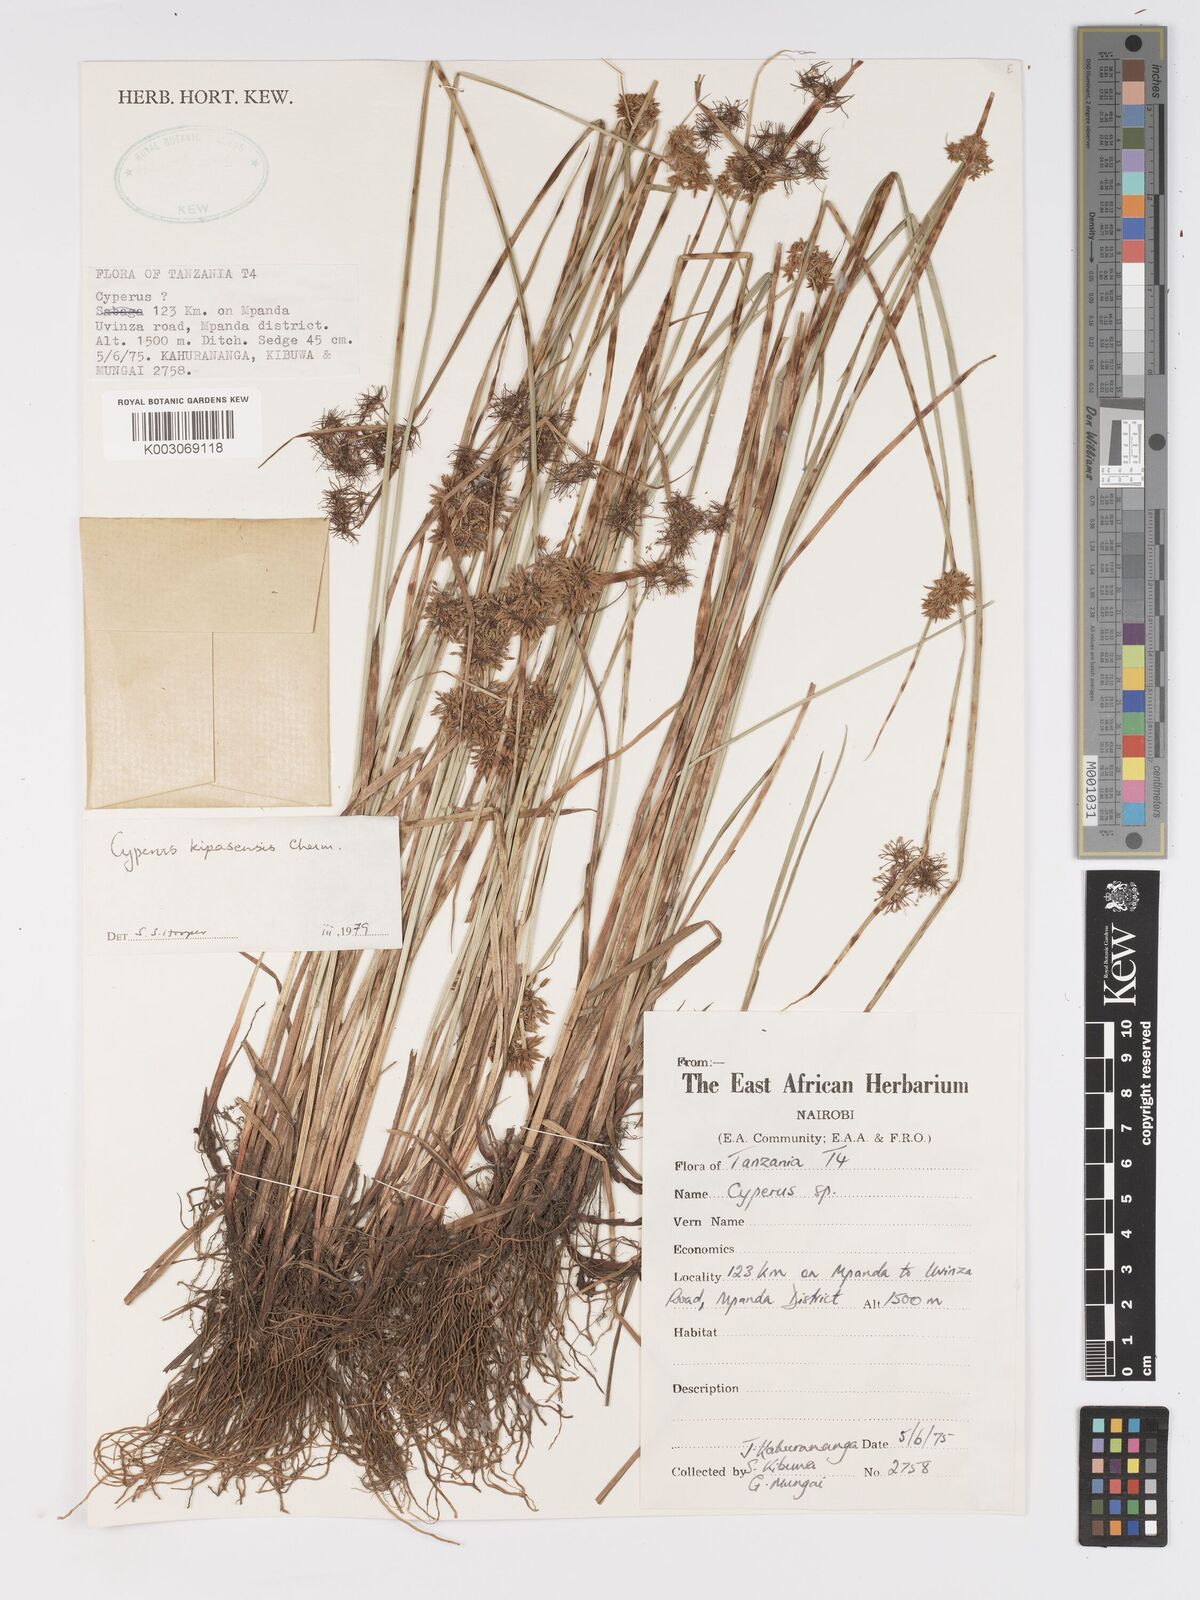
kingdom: Plantae
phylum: Tracheophyta
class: Liliopsida
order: Poales
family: Cyperaceae
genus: Cyperus
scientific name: Cyperus kipasensis
